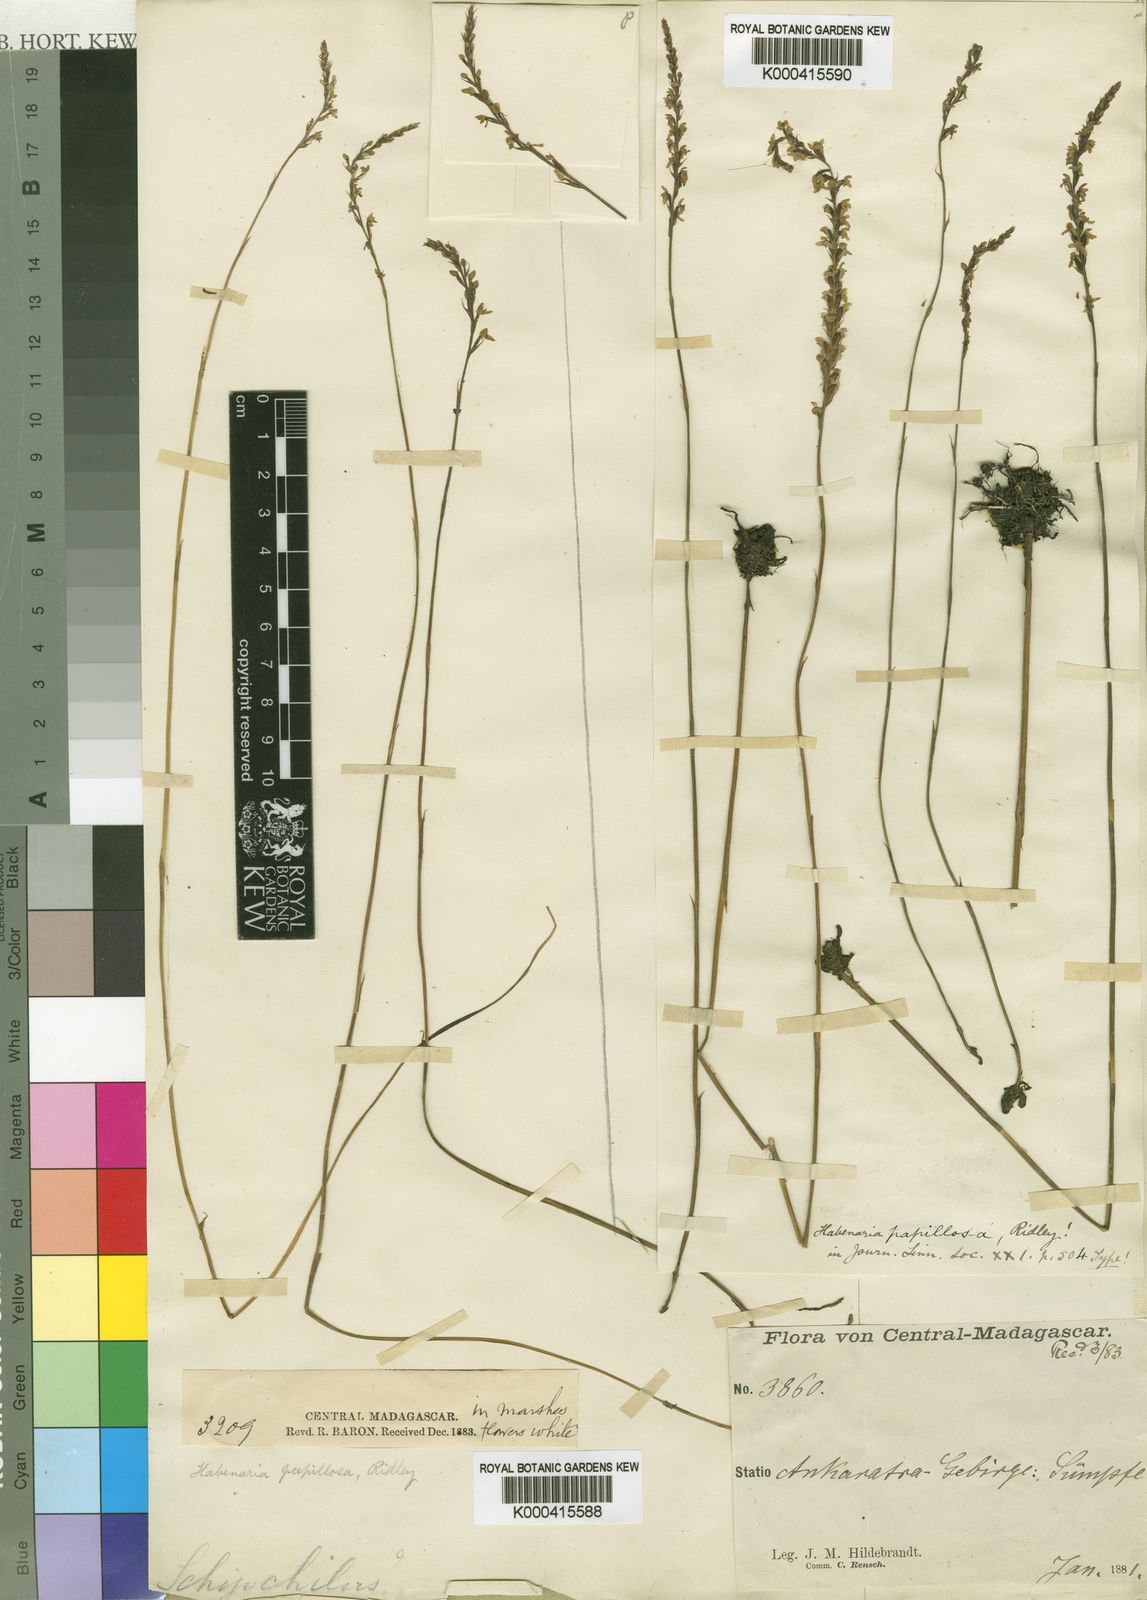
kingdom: Plantae
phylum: Tracheophyta
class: Liliopsida
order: Asparagales
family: Orchidaceae
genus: Cynorkis
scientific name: Cynorkis papillosa
